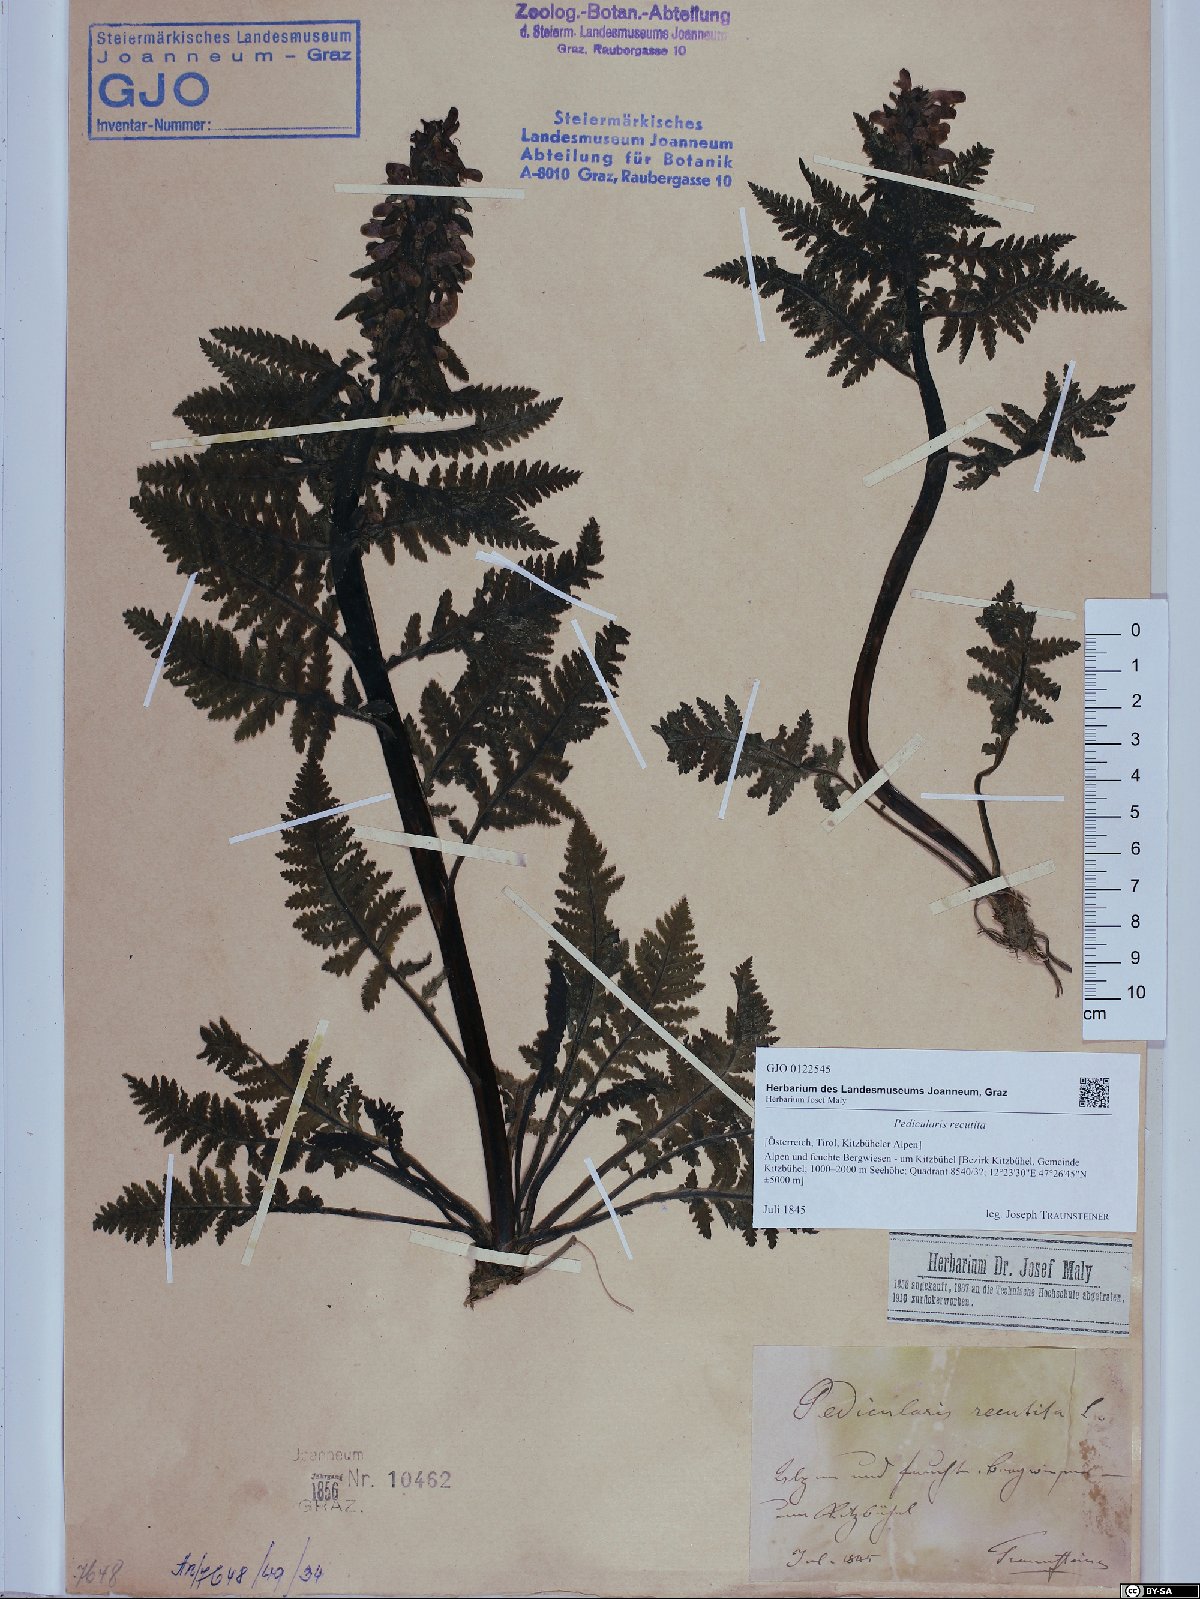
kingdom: Plantae
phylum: Tracheophyta
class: Magnoliopsida
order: Lamiales
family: Orobanchaceae
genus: Pedicularis
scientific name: Pedicularis recutita
